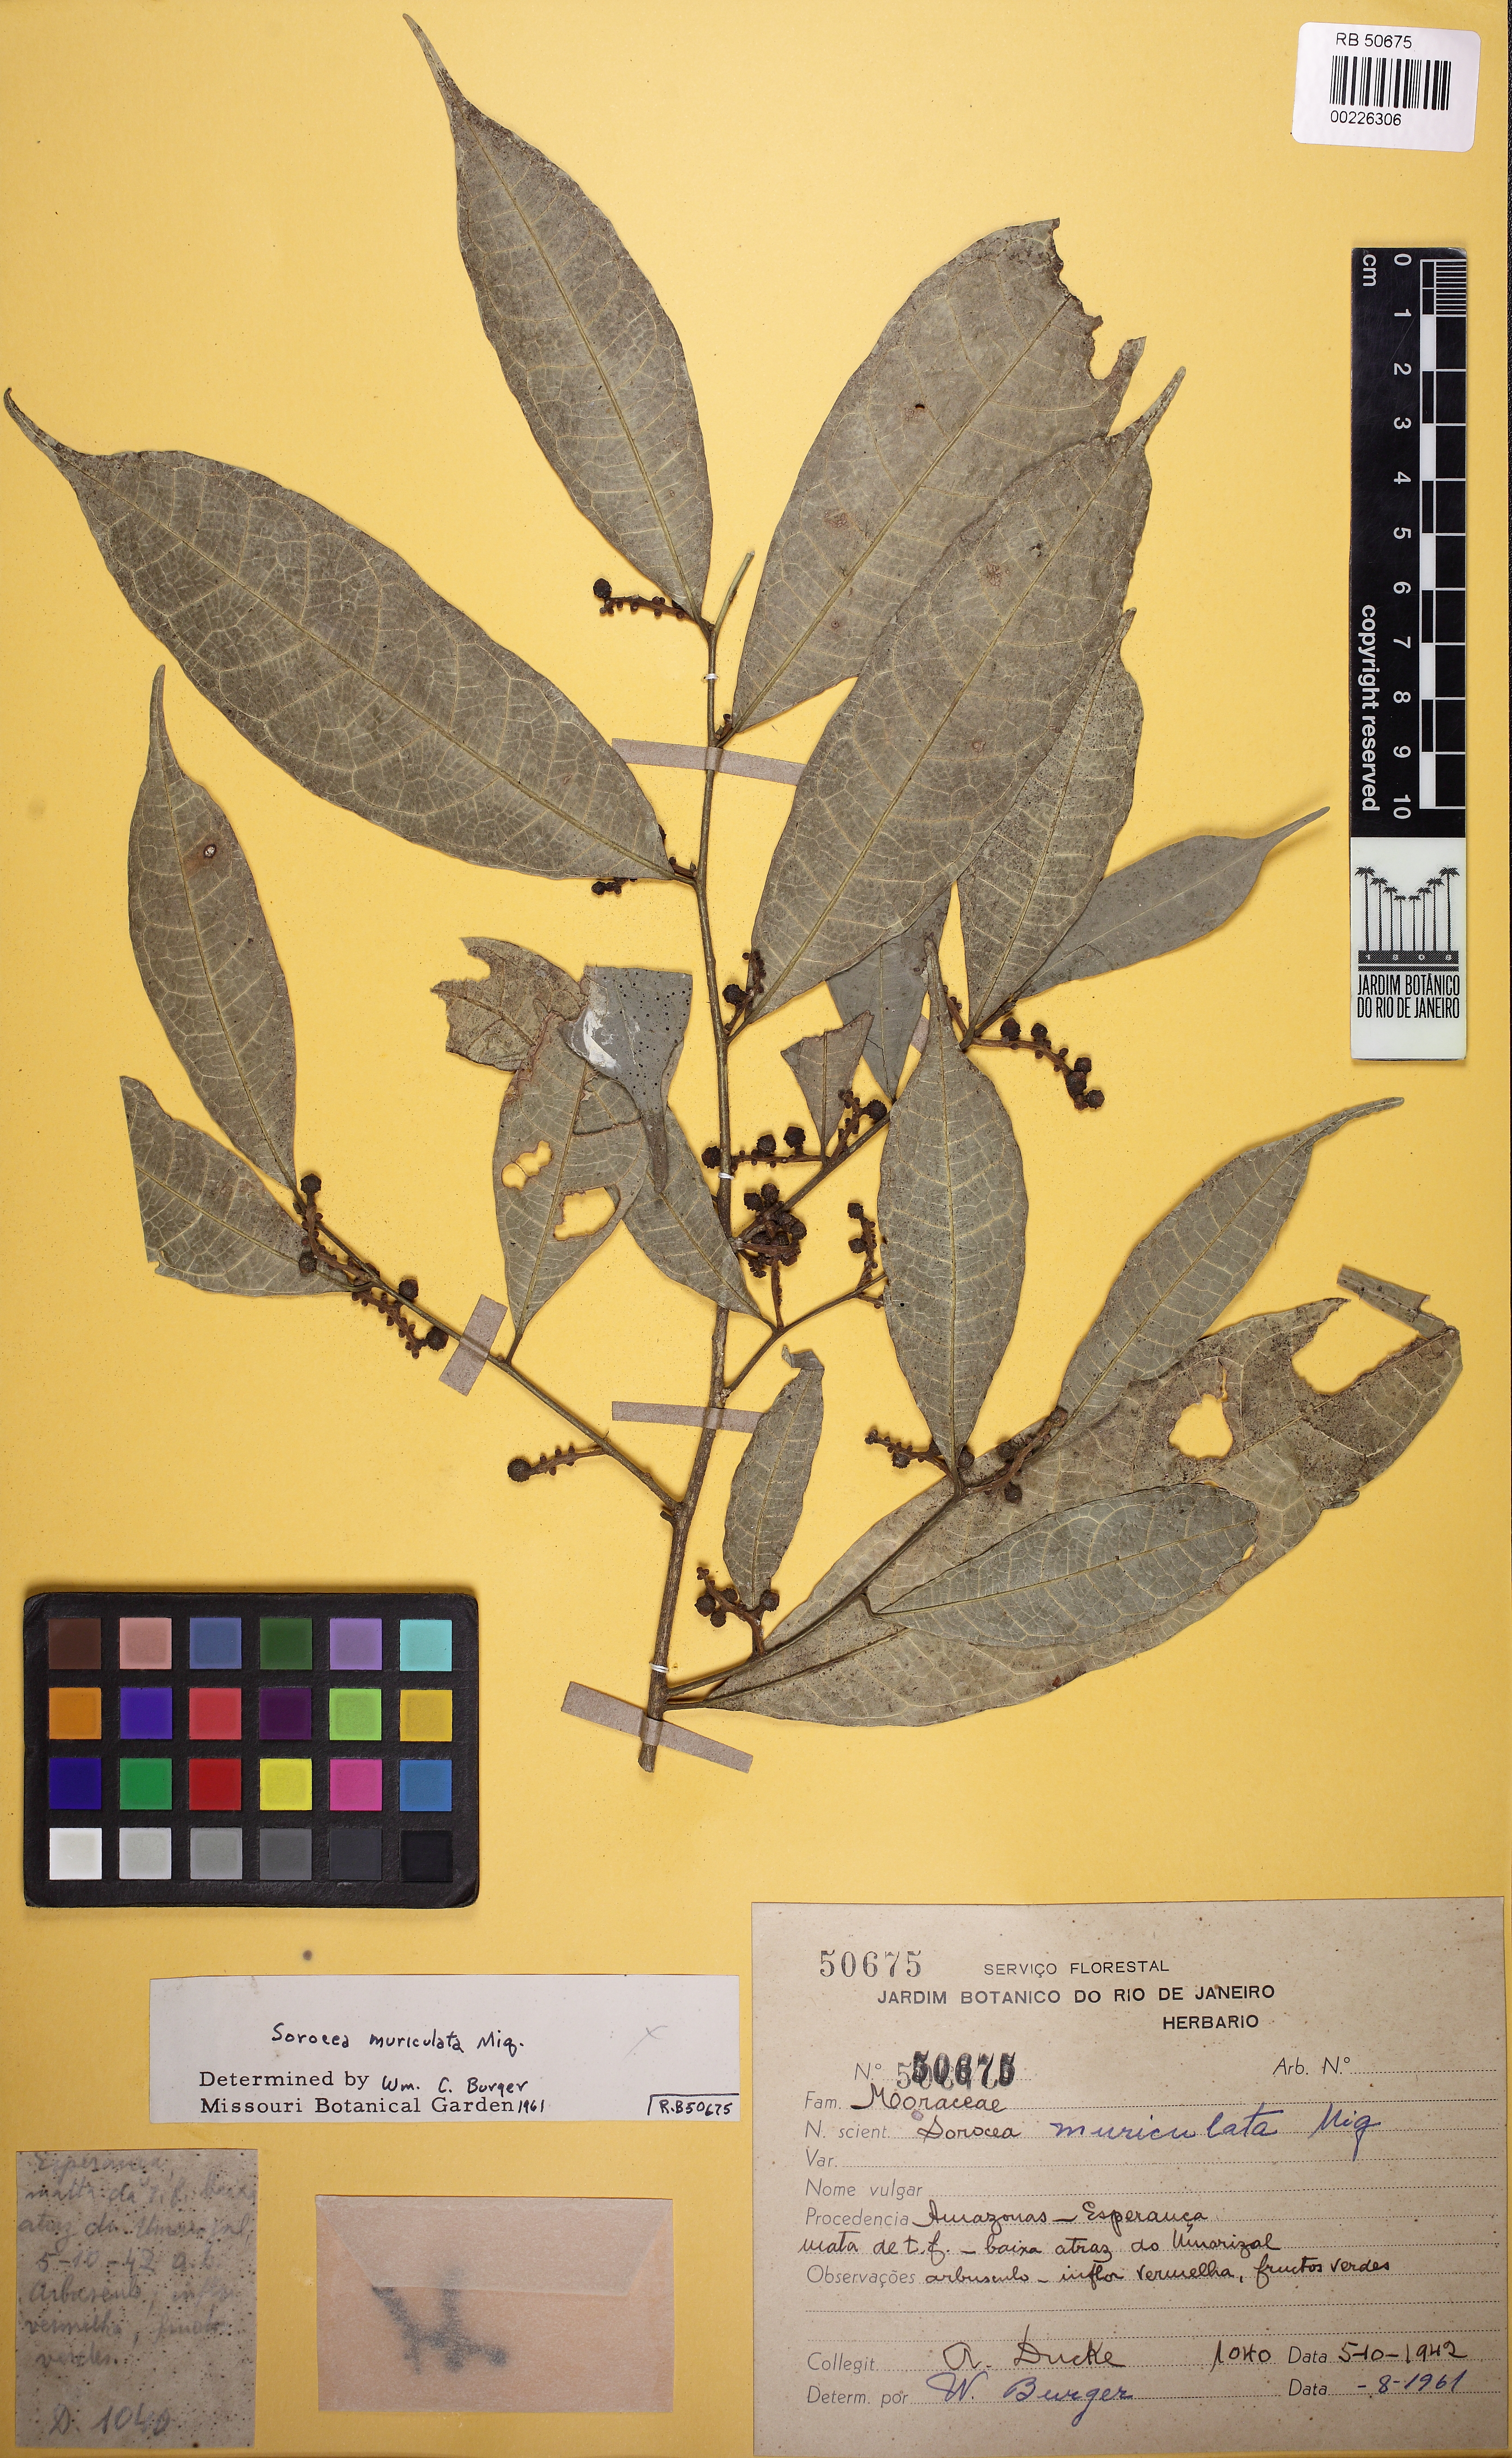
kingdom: Plantae
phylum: Tracheophyta
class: Magnoliopsida
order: Rosales
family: Moraceae
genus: Sorocea
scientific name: Sorocea muriculata
